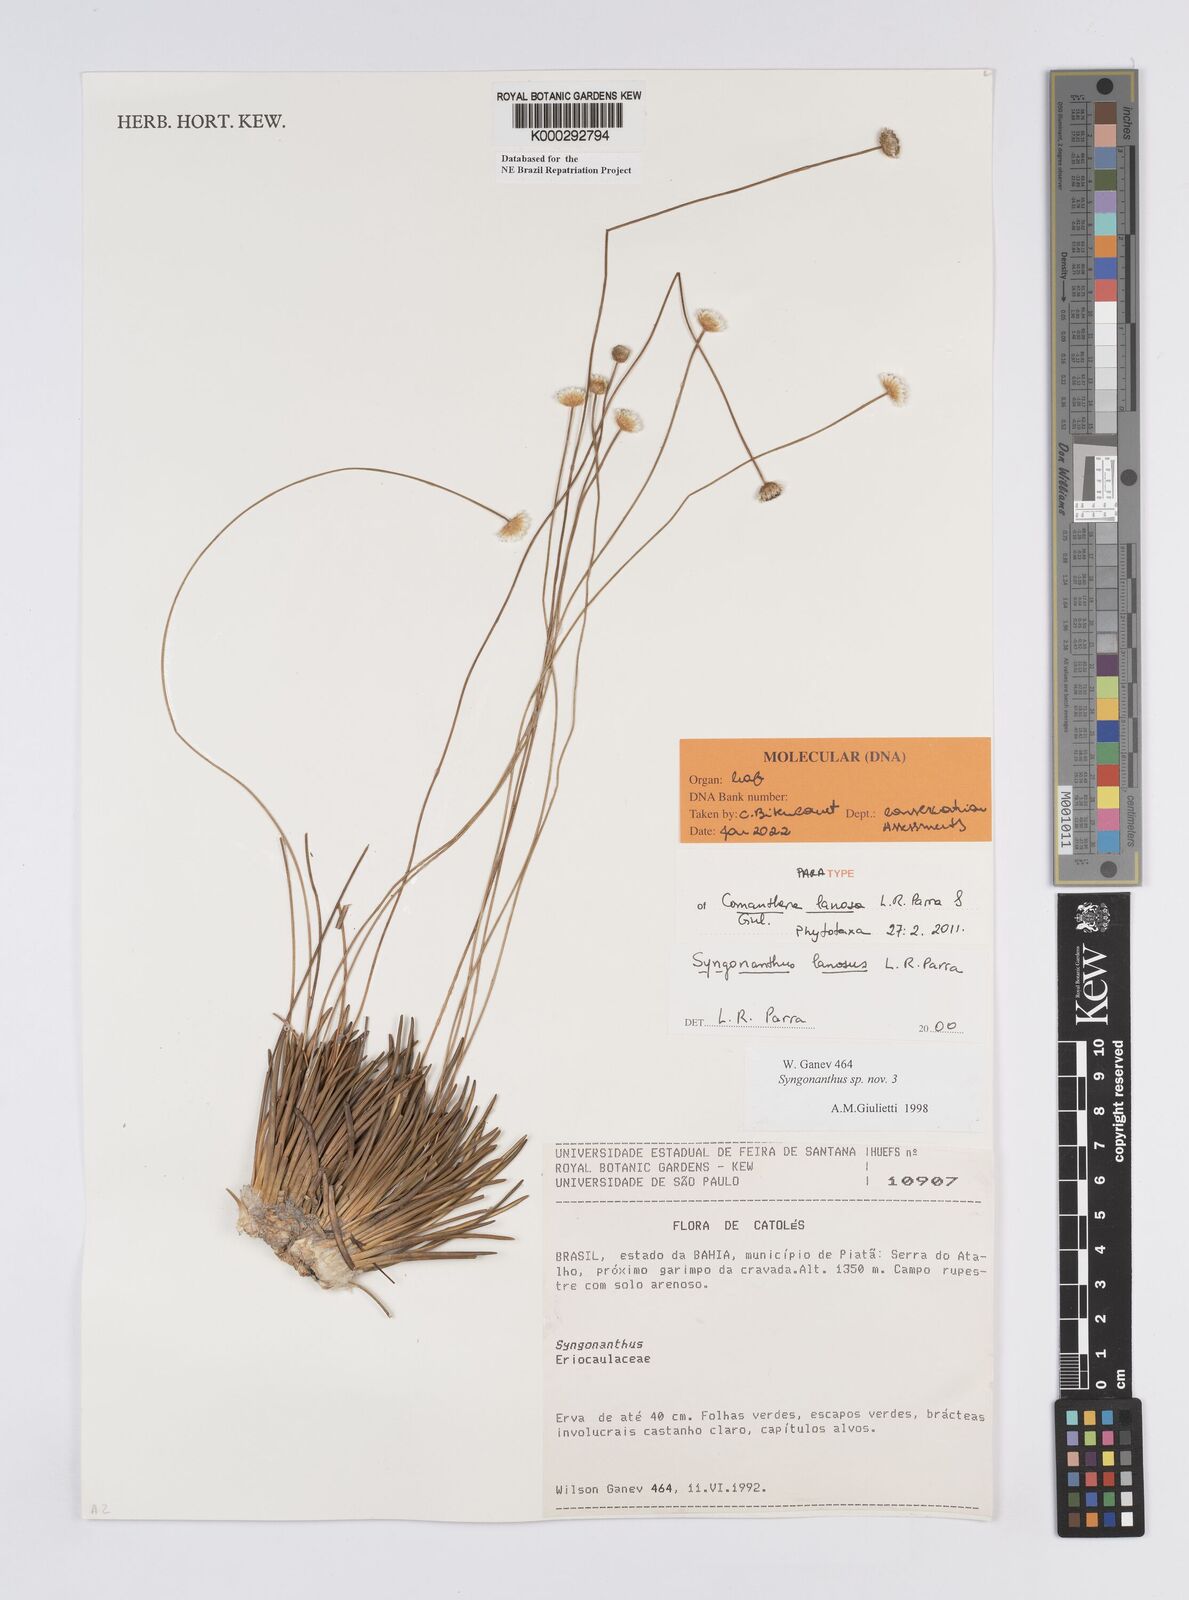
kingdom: Plantae
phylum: Tracheophyta
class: Liliopsida
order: Poales
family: Eriocaulaceae
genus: Syngonanthus
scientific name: Syngonanthus
